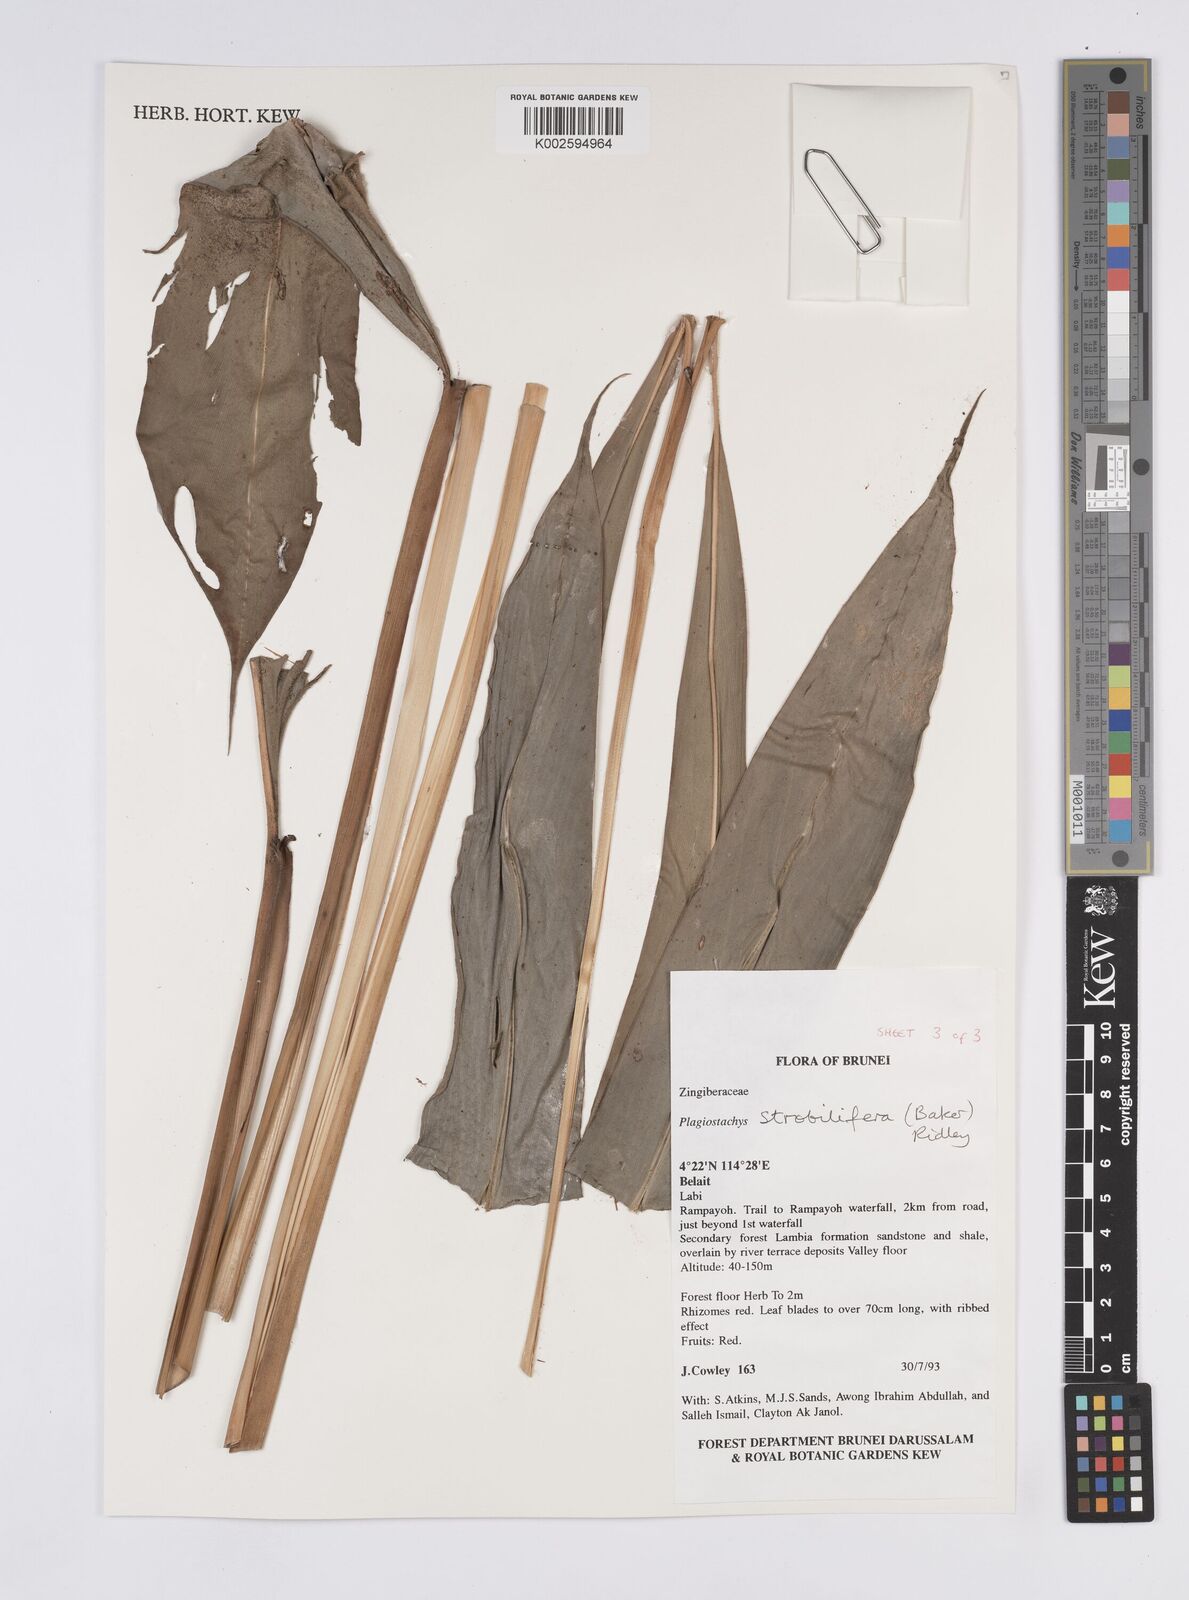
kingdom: Plantae
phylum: Tracheophyta
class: Liliopsida
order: Zingiberales
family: Zingiberaceae
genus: Plagiostachys
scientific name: Plagiostachys strobilifera
